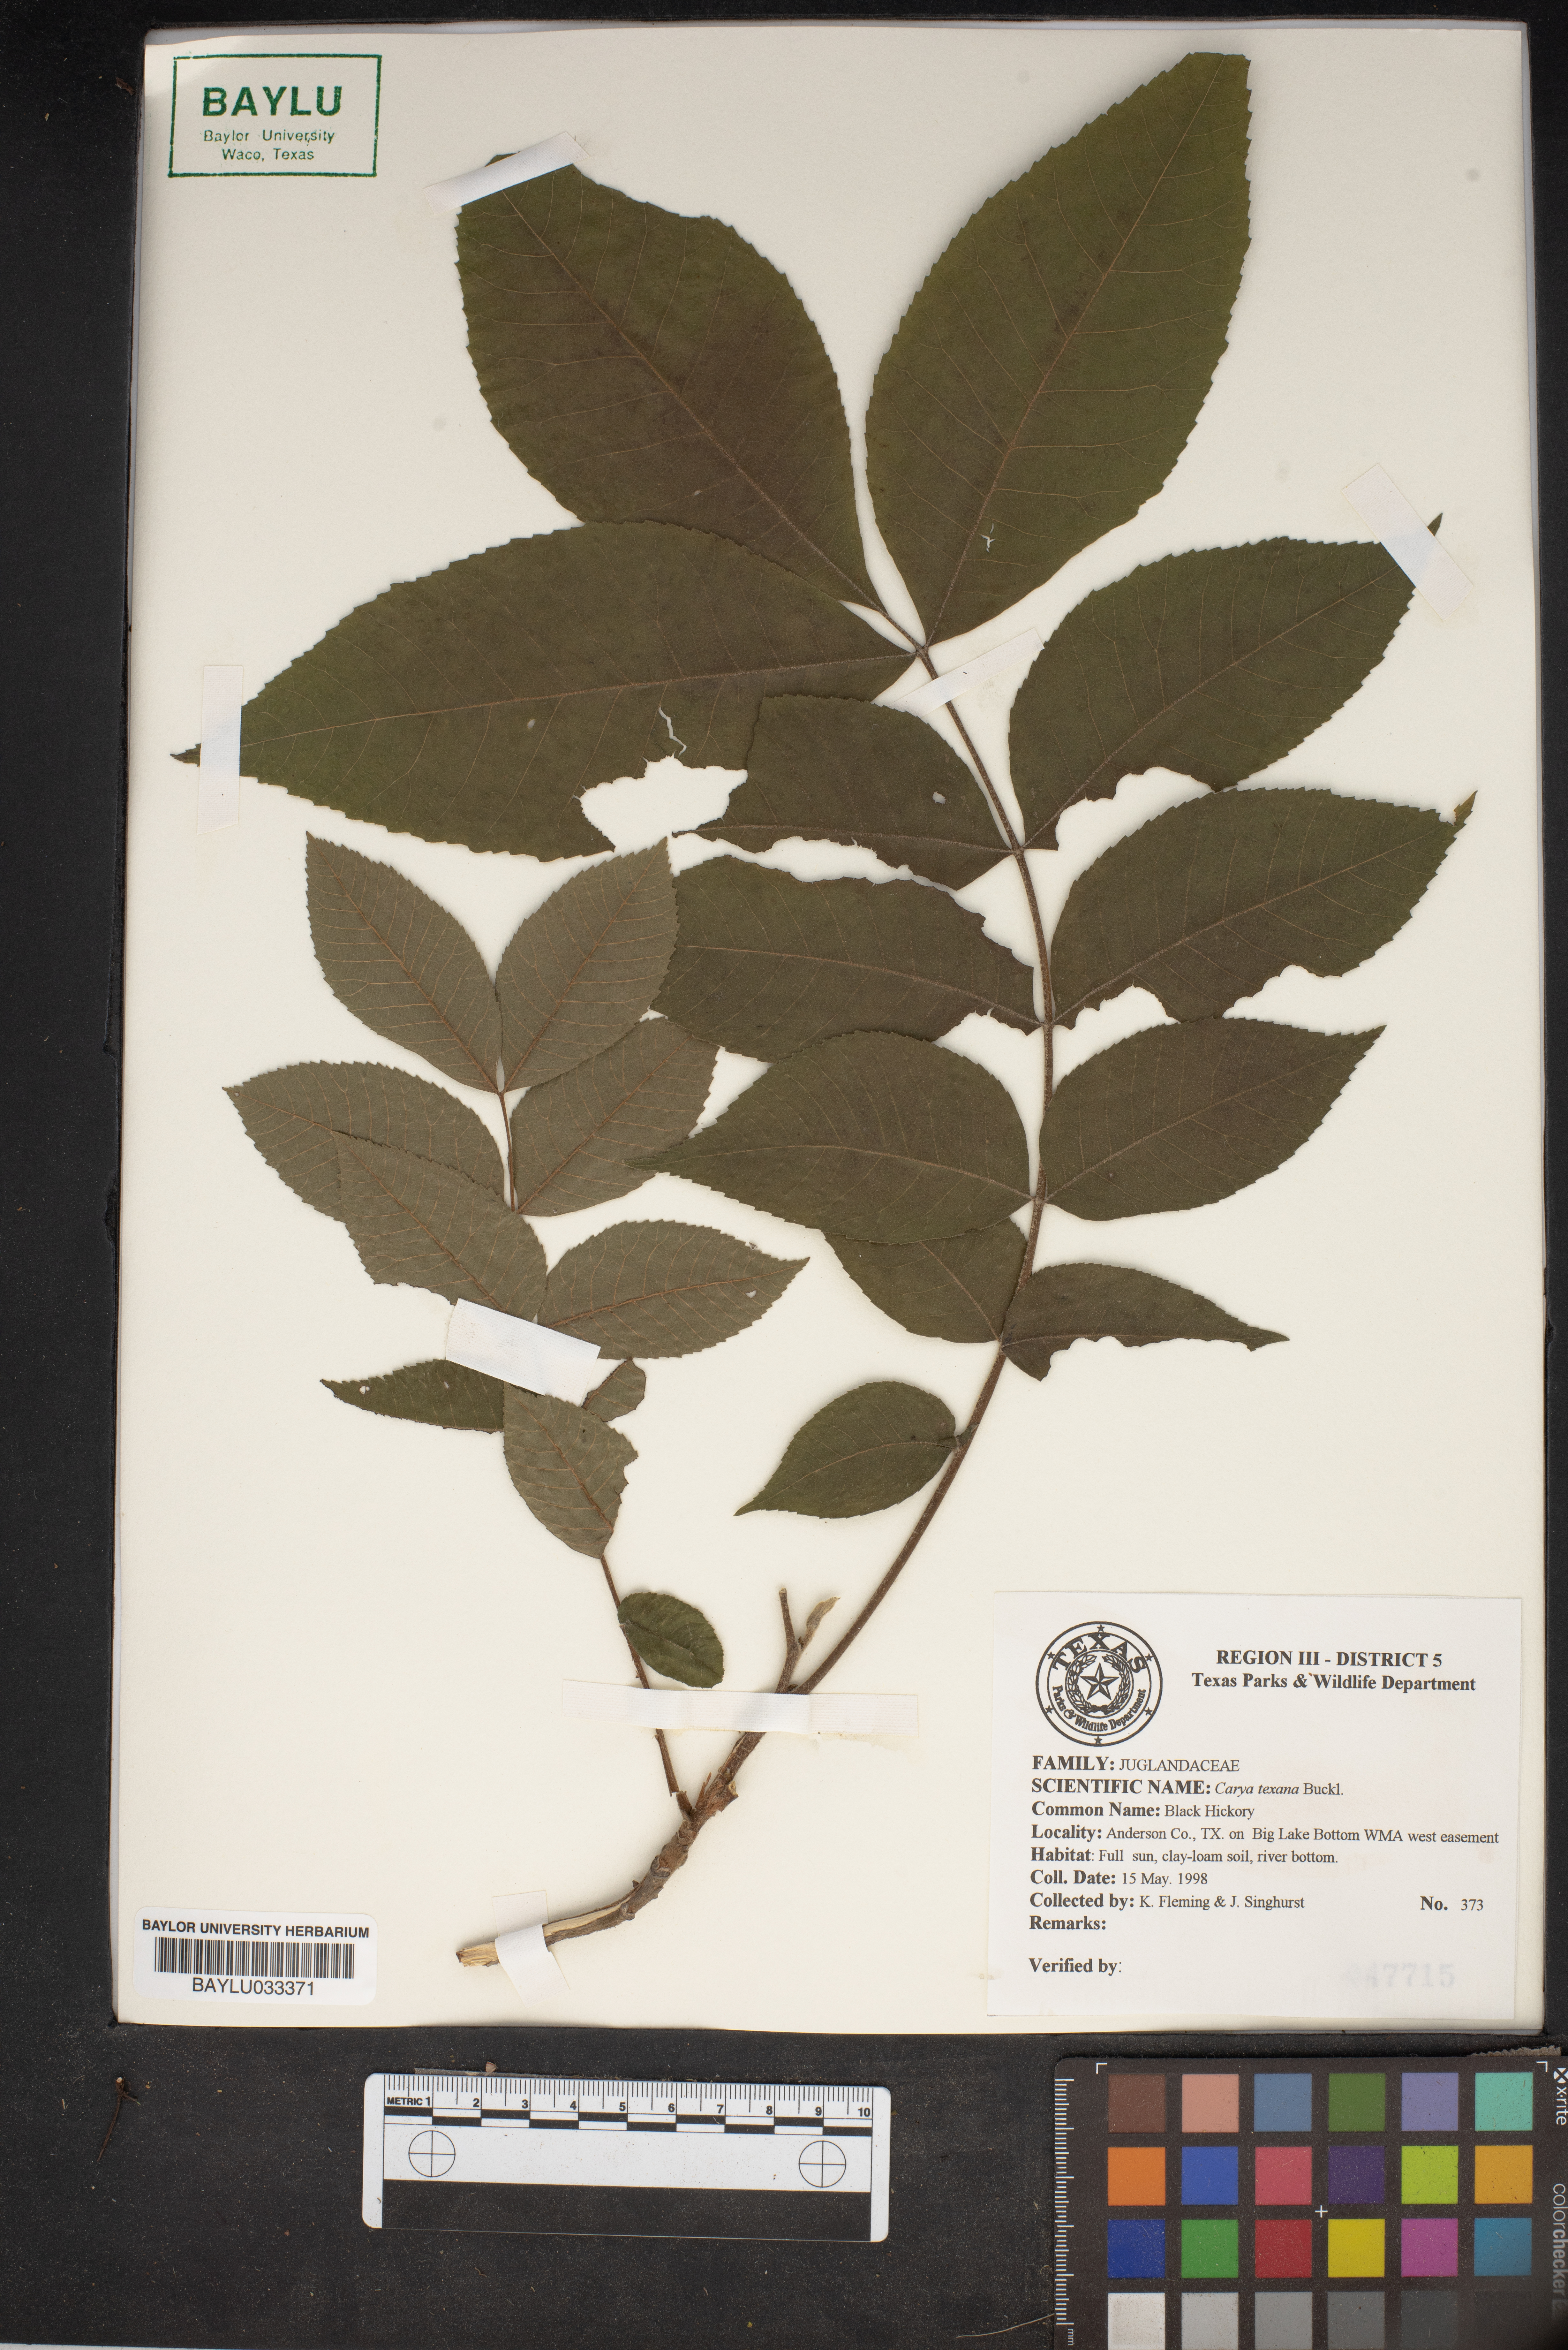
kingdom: Plantae
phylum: Tracheophyta
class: Magnoliopsida
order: Fagales
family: Juglandaceae
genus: Carya
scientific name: Carya texana
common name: Black hickory
